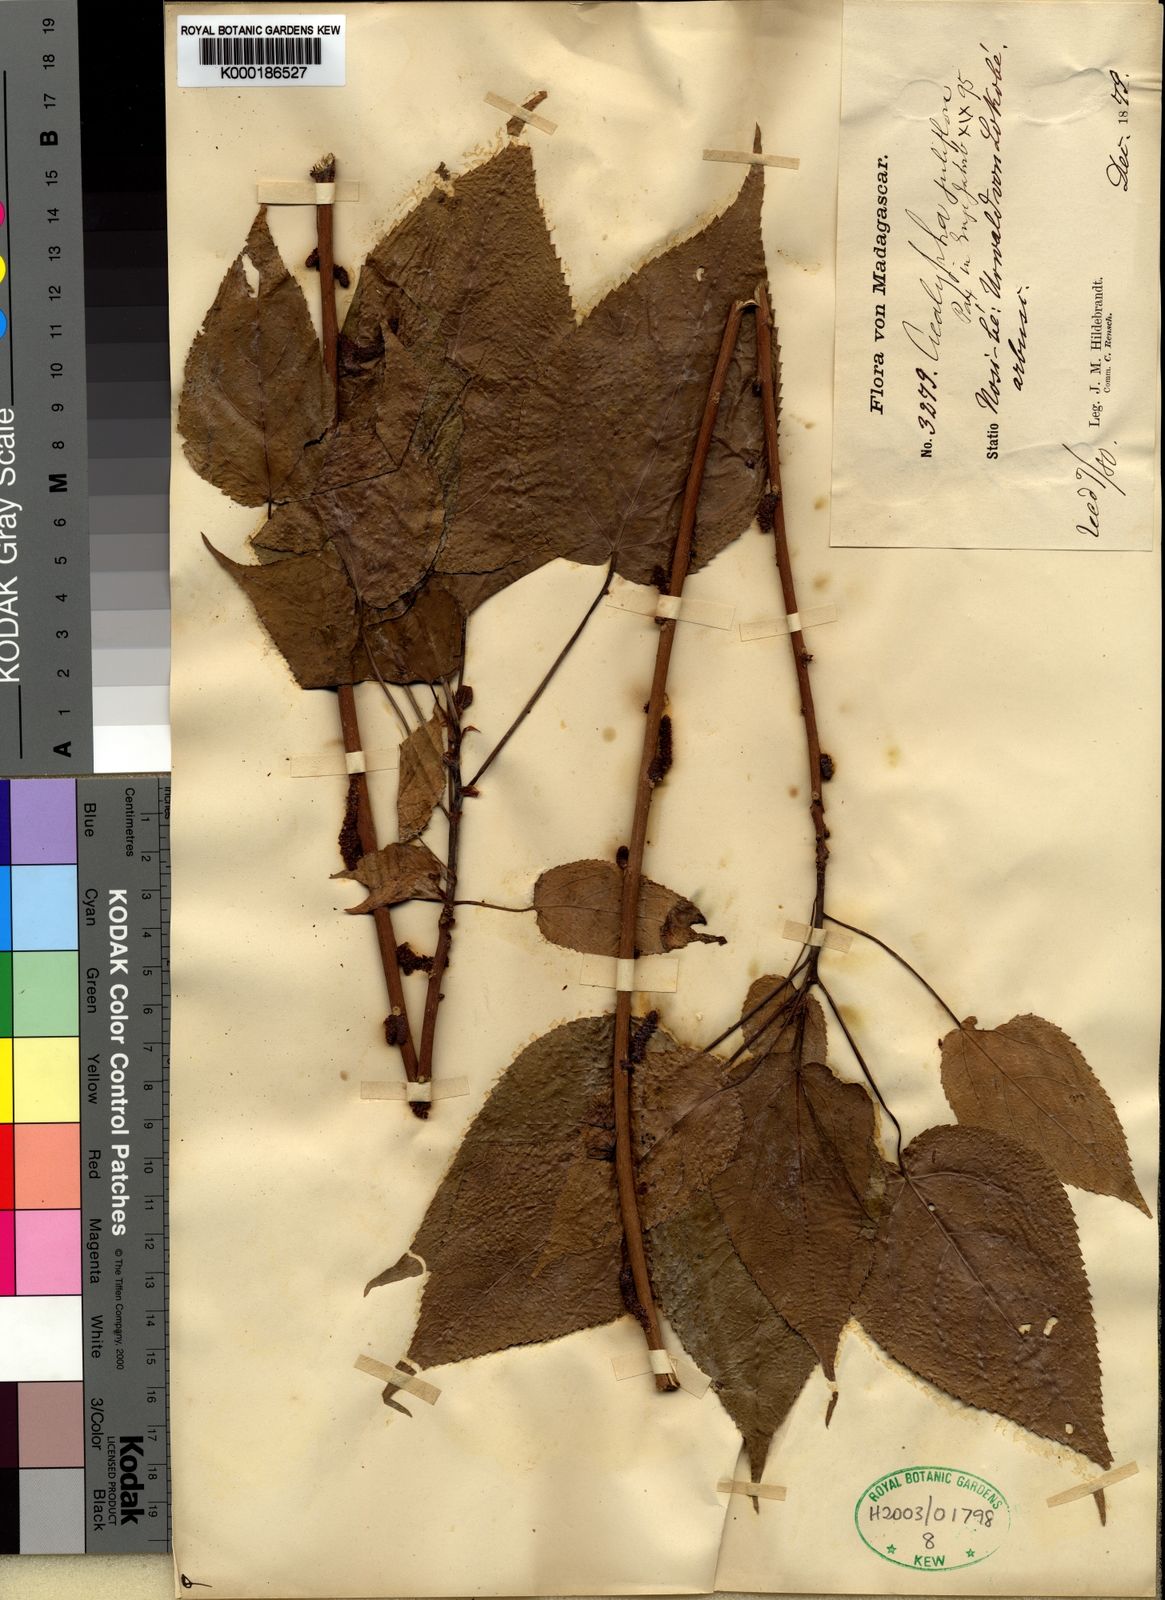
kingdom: Plantae
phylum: Tracheophyta
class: Magnoliopsida
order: Malpighiales
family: Euphorbiaceae
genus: Acalypha
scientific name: Acalypha rottleroides
